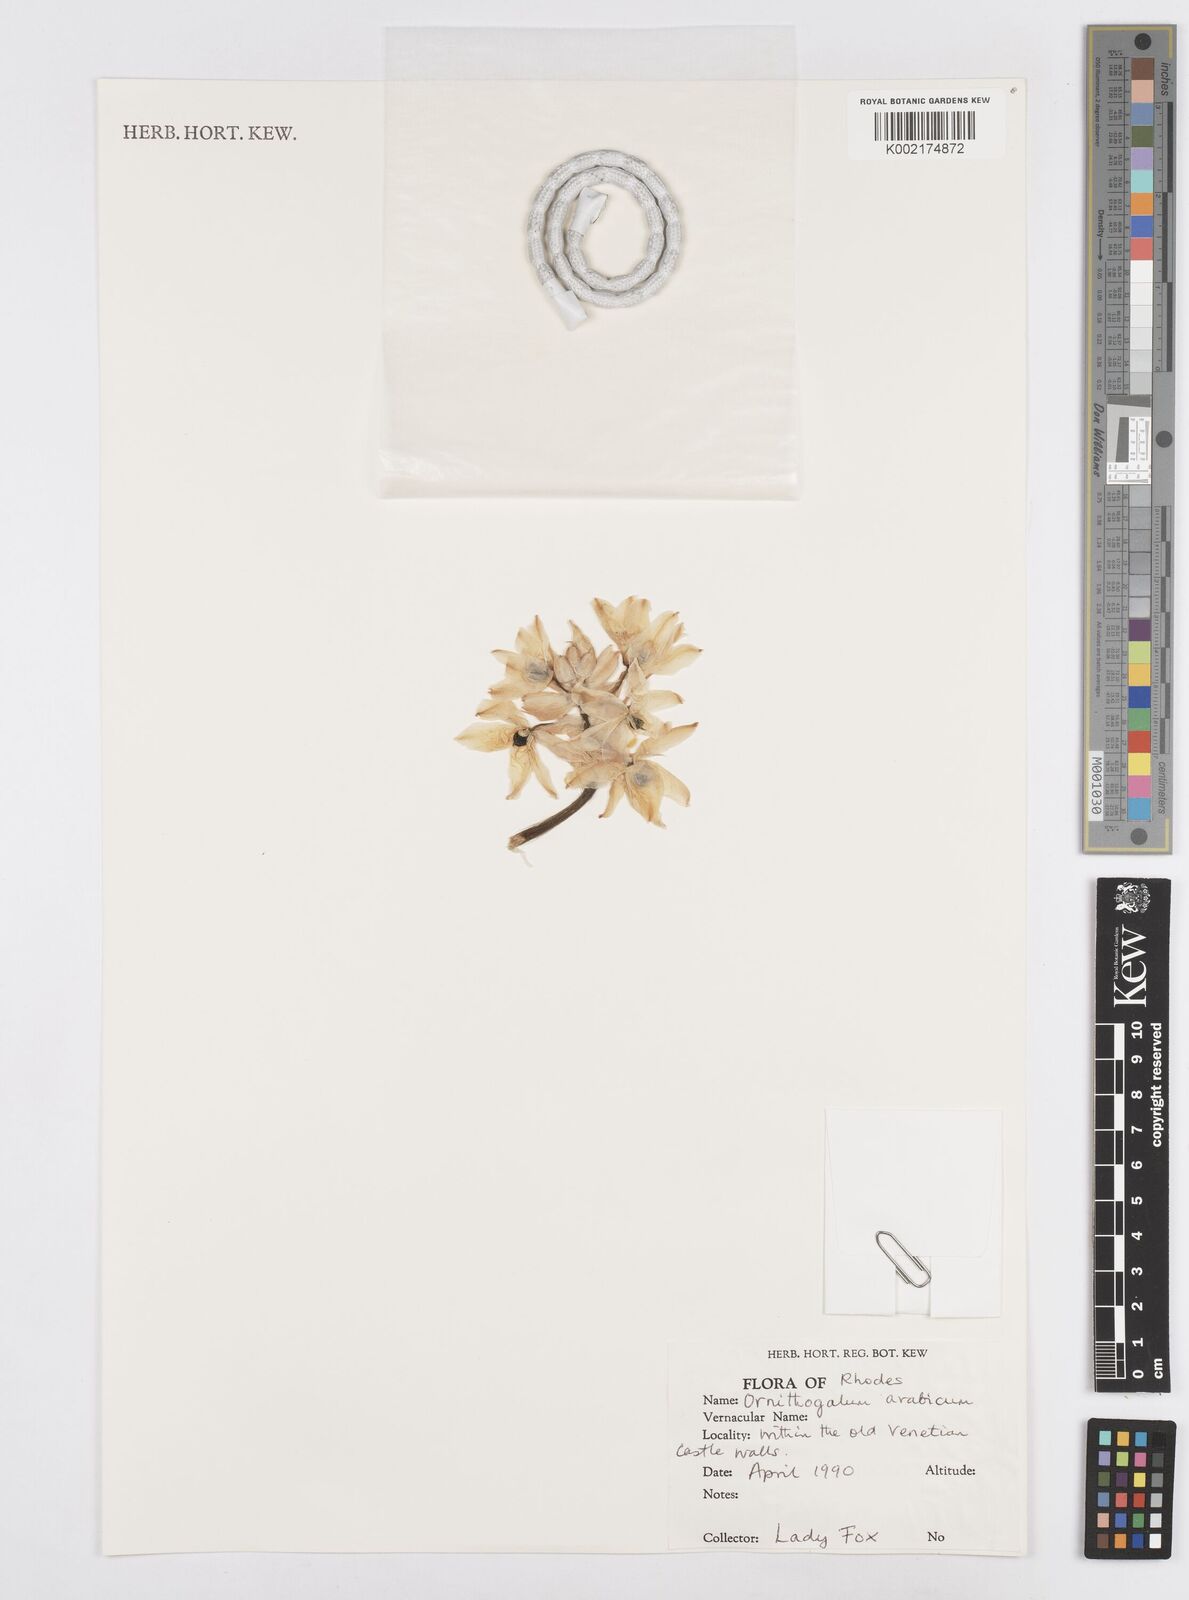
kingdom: Plantae
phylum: Tracheophyta
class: Liliopsida
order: Asparagales
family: Asparagaceae
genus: Ornithogalum
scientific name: Ornithogalum arabicum
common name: Arabian starflower
